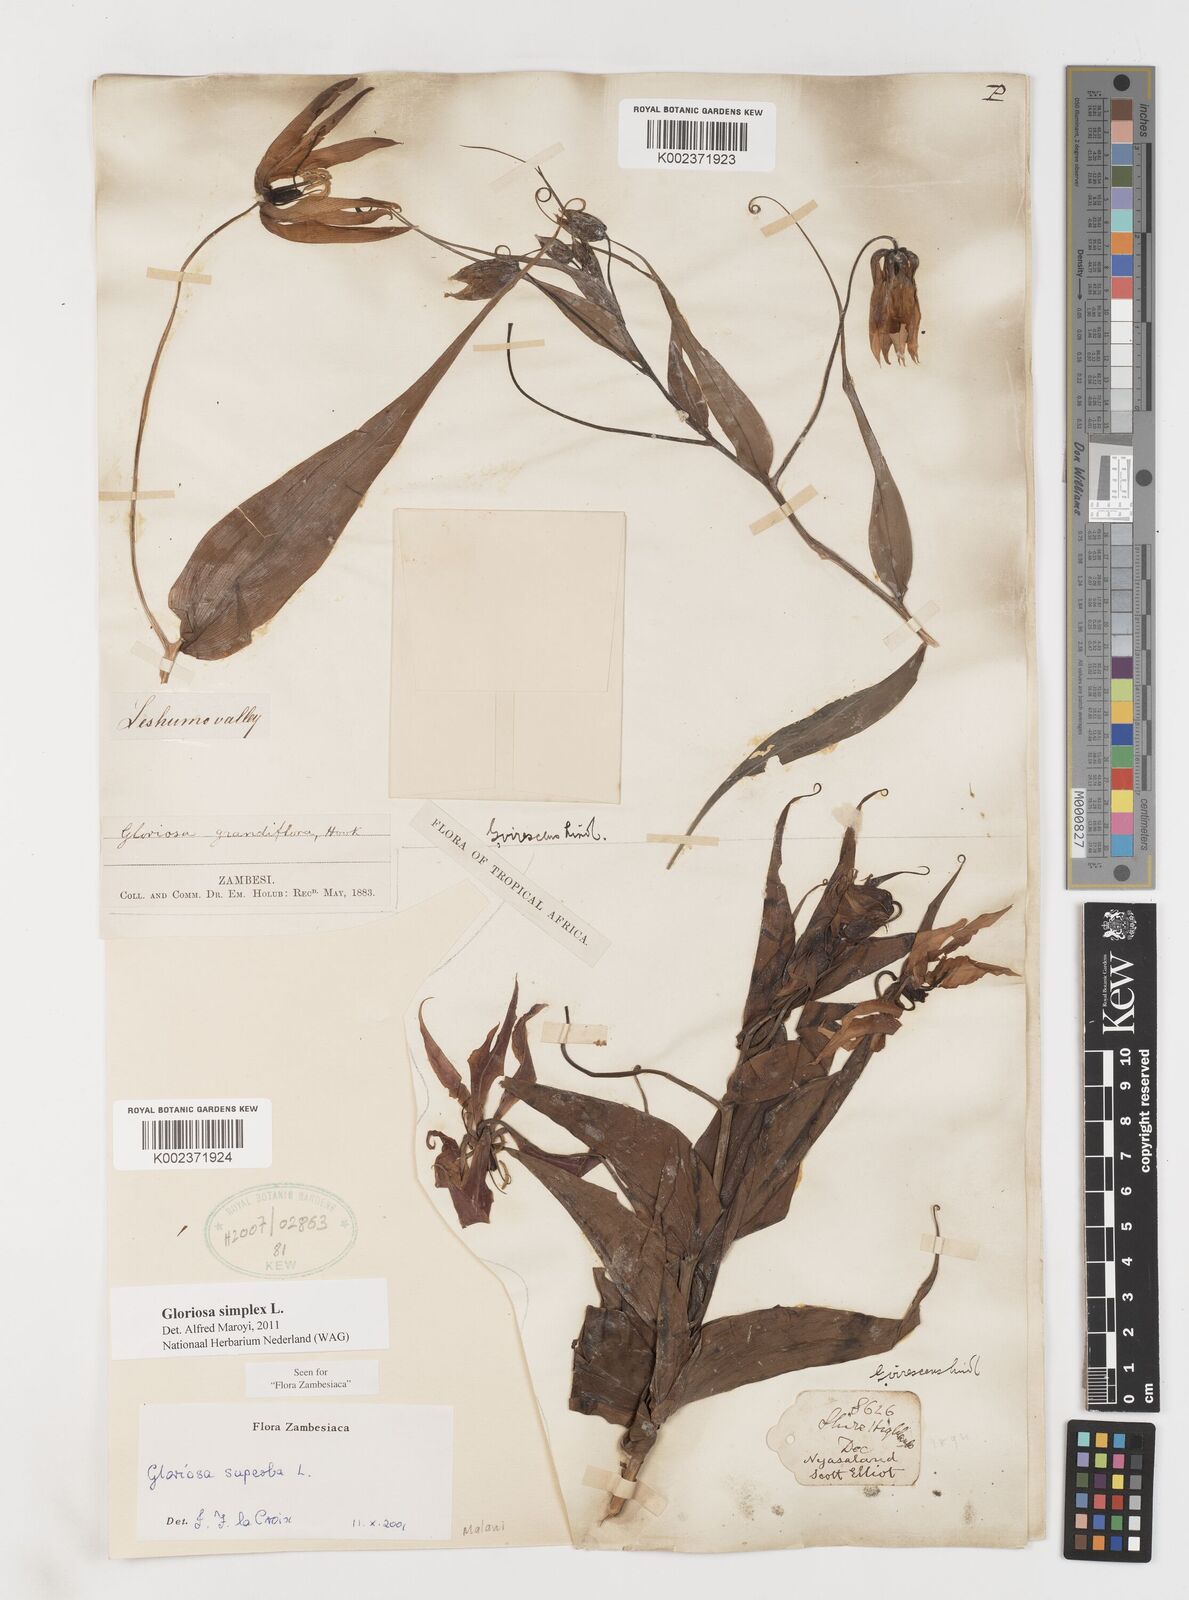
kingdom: Plantae
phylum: Tracheophyta
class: Liliopsida
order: Liliales
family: Colchicaceae
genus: Gloriosa
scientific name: Gloriosa simplex
